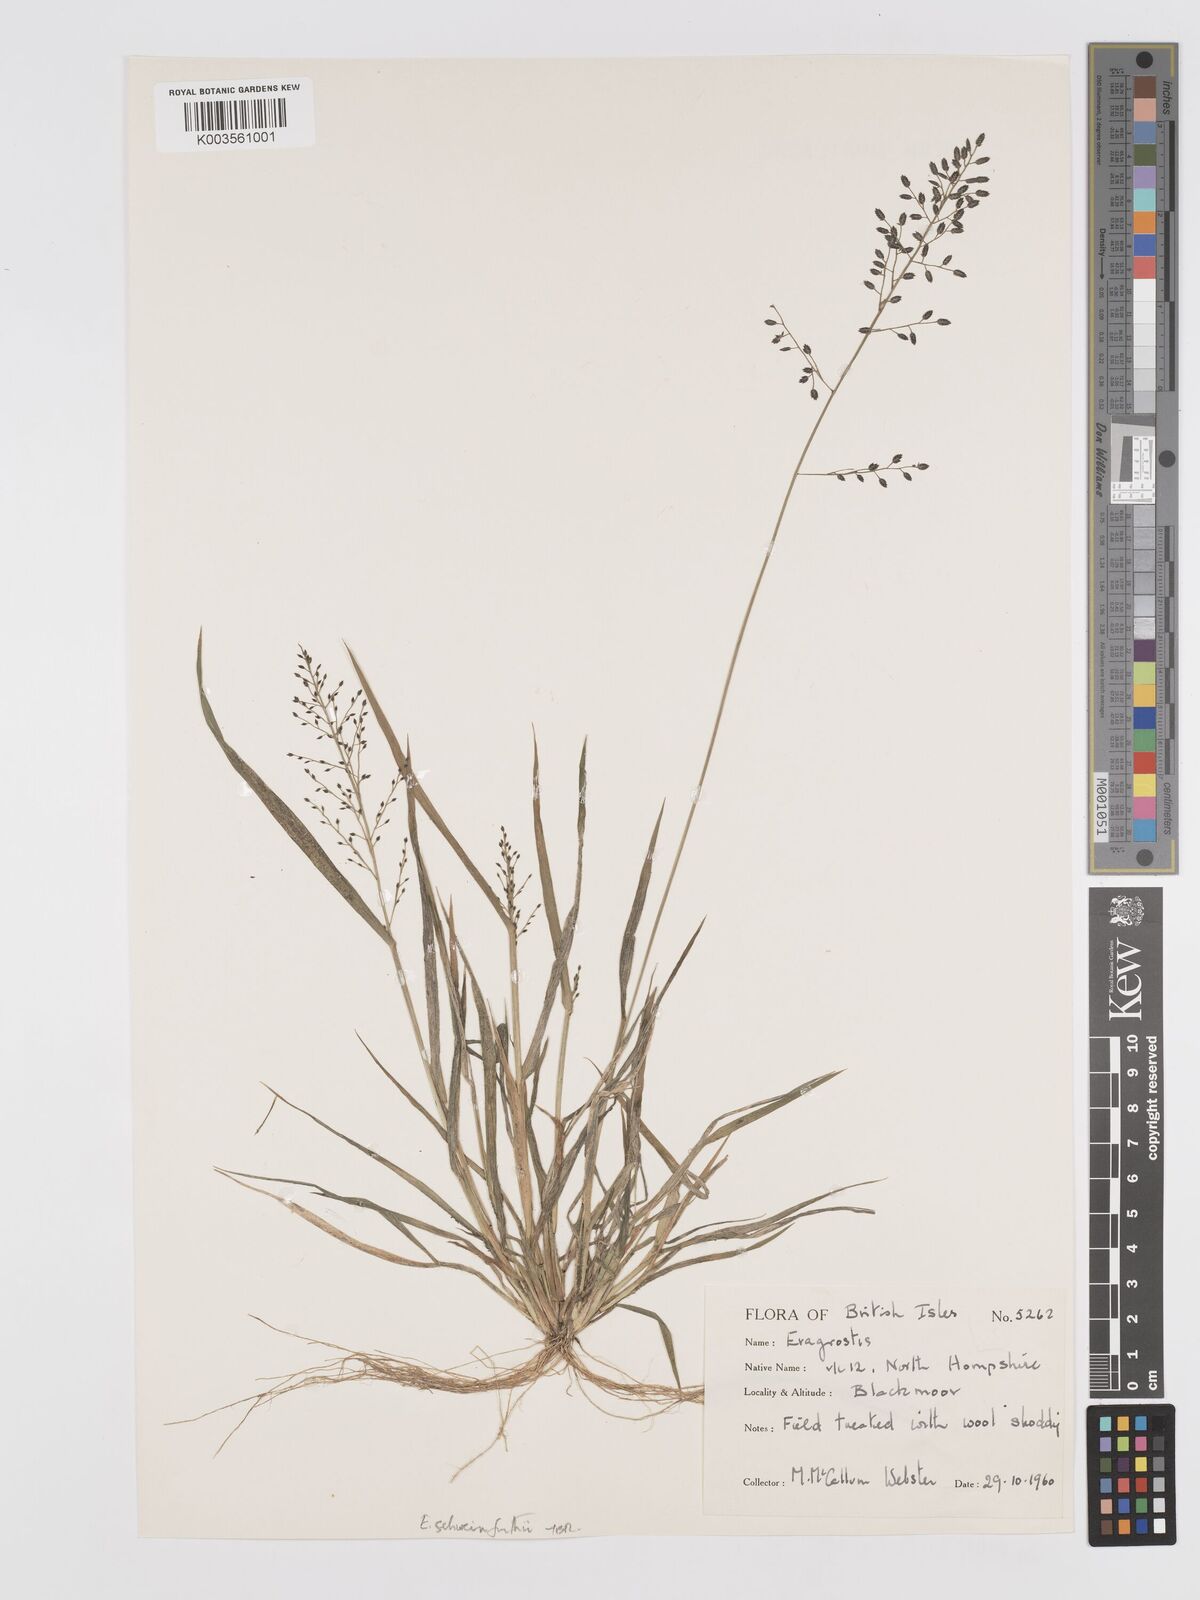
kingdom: Plantae
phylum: Tracheophyta
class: Liliopsida
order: Poales
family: Poaceae
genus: Eragrostis
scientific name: Eragrostis
